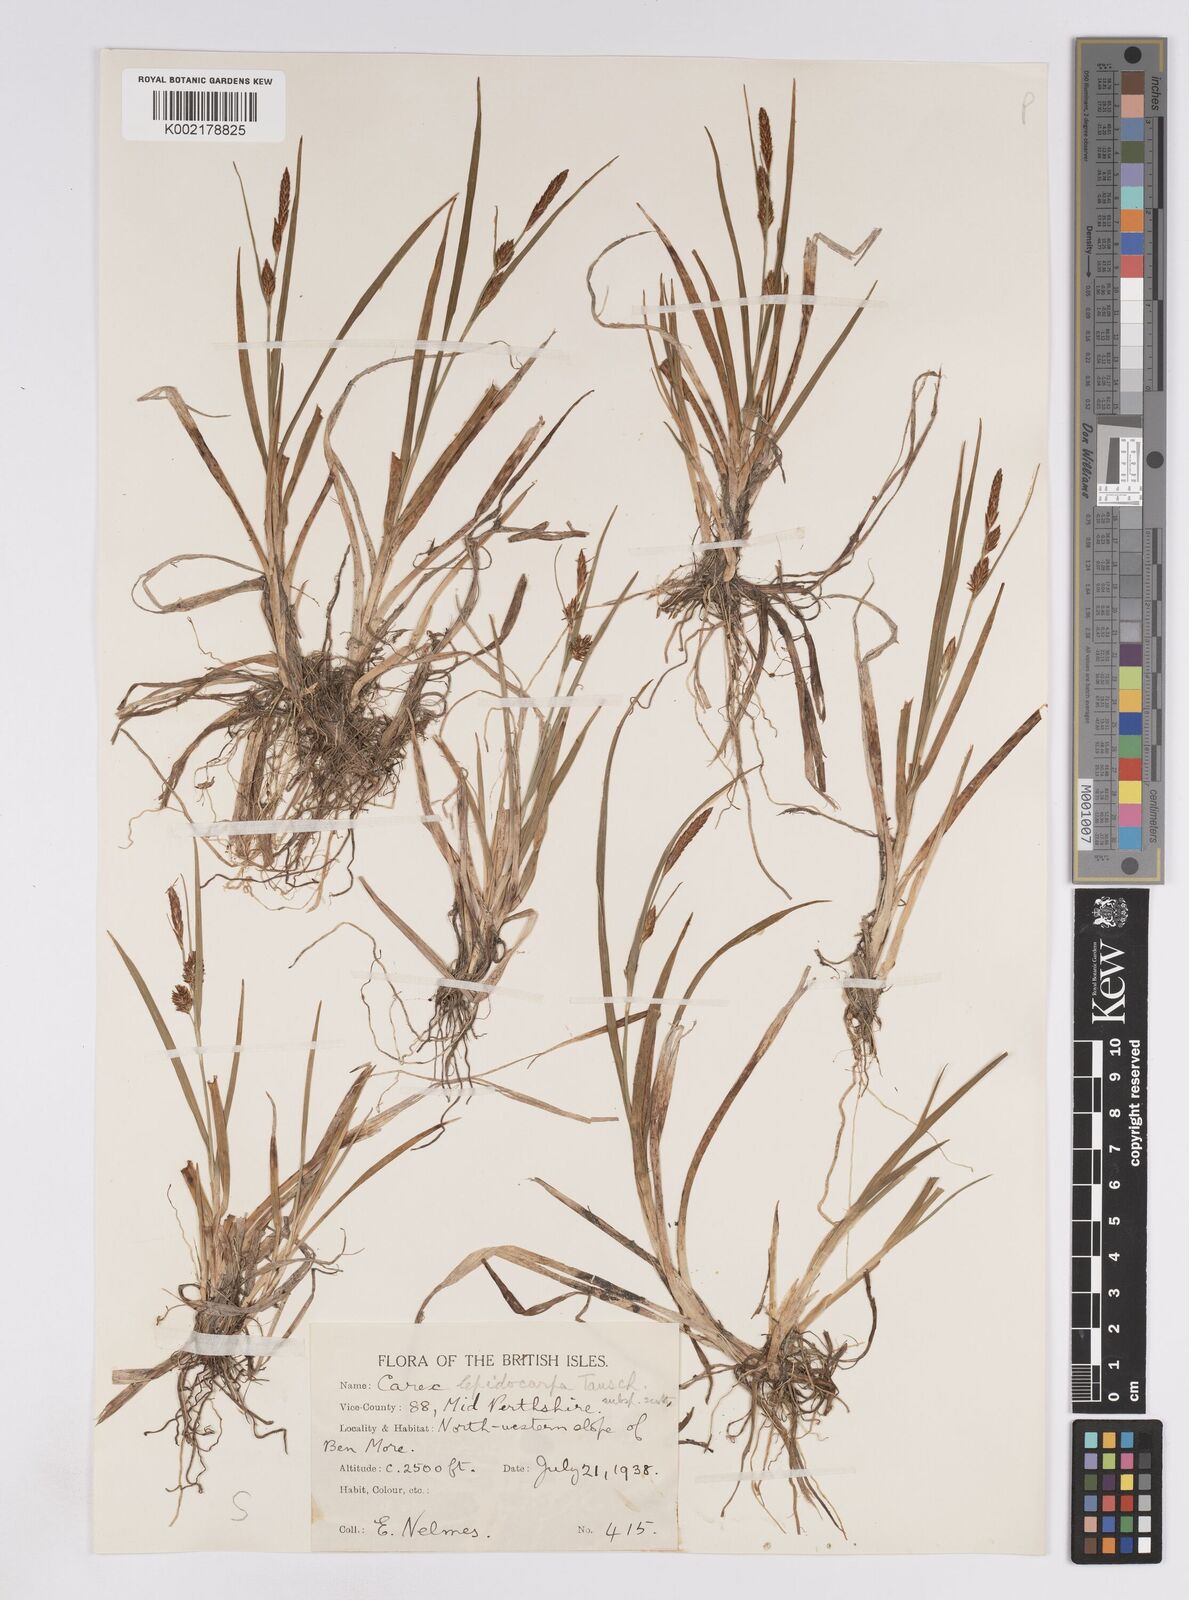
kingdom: Plantae
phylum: Tracheophyta
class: Liliopsida
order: Poales
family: Cyperaceae
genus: Carex
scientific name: Carex lepidocarpa
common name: Long-stalked yellow-sedge
